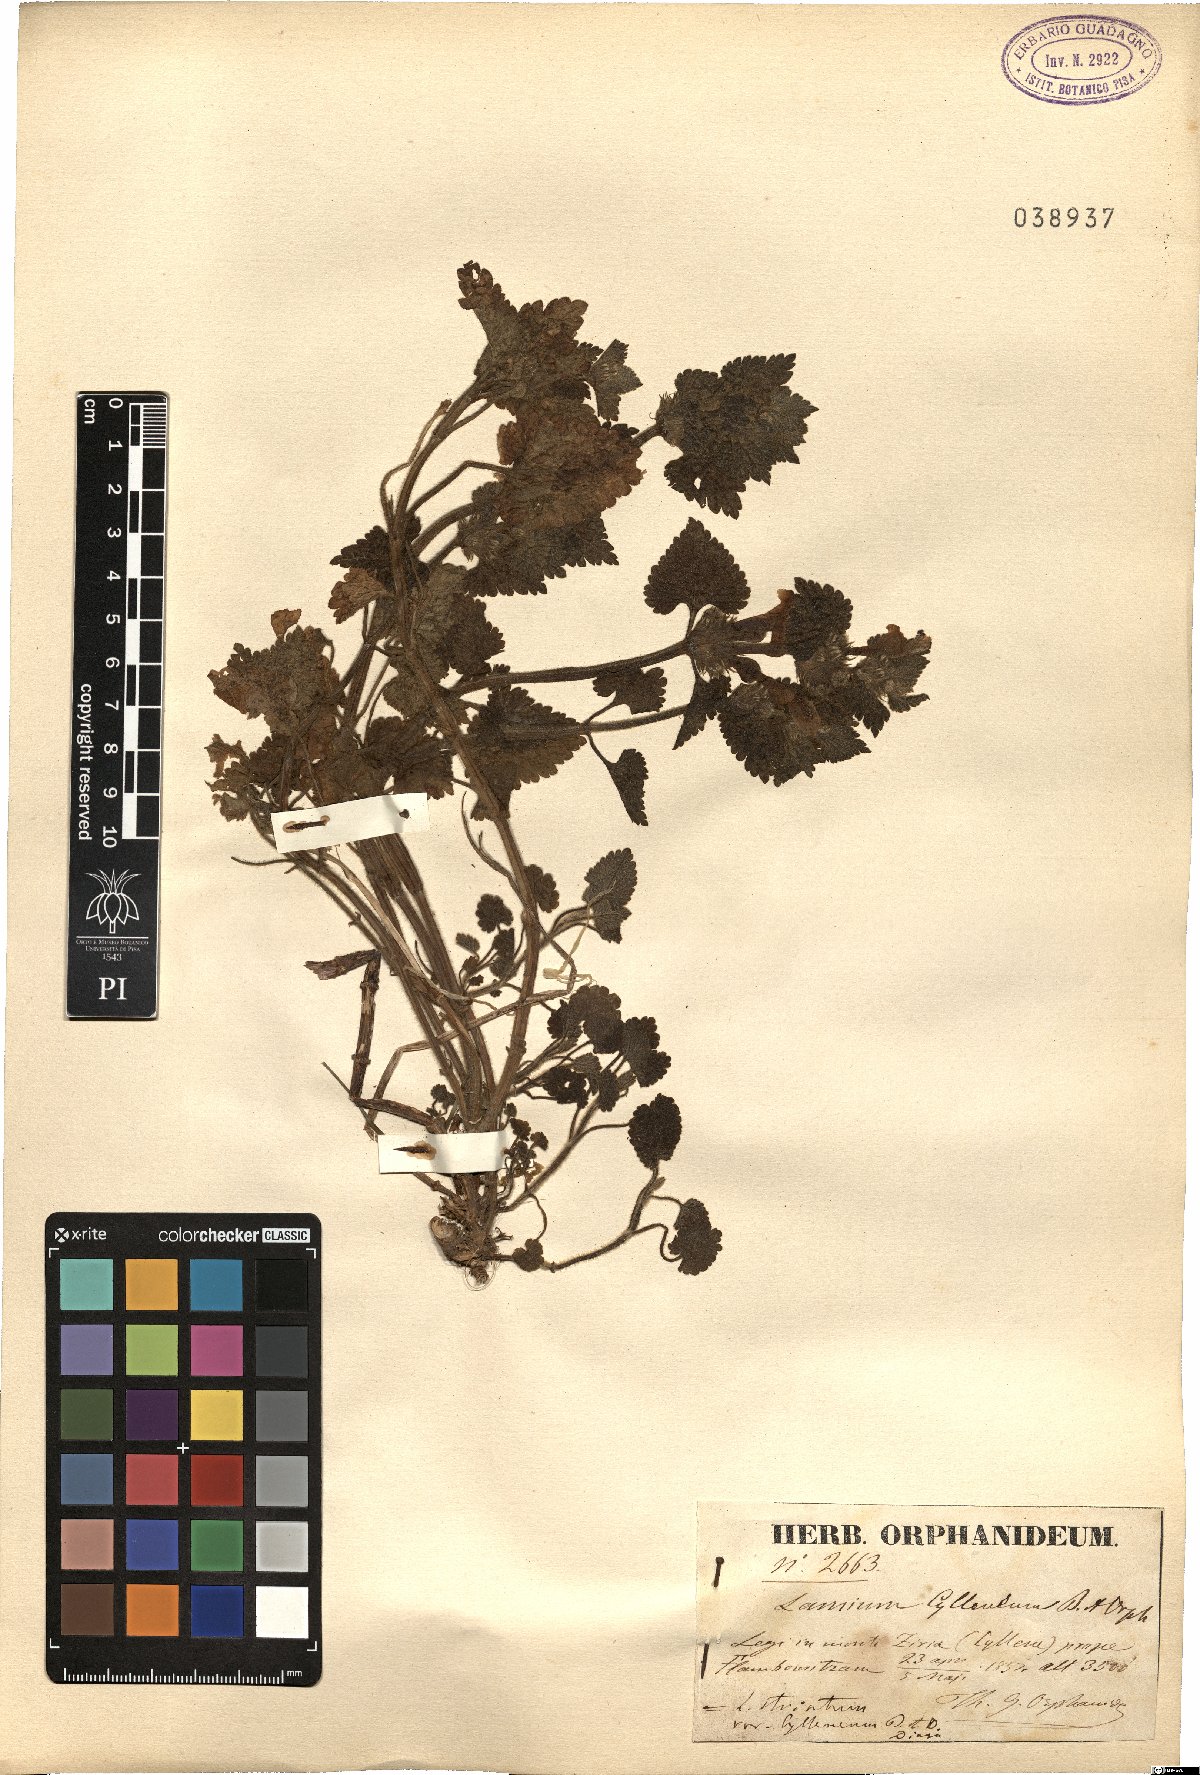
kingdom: Plantae
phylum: Tracheophyta
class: Magnoliopsida
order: Lamiales
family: Lamiaceae
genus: Lamium
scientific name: Lamium garganicum
